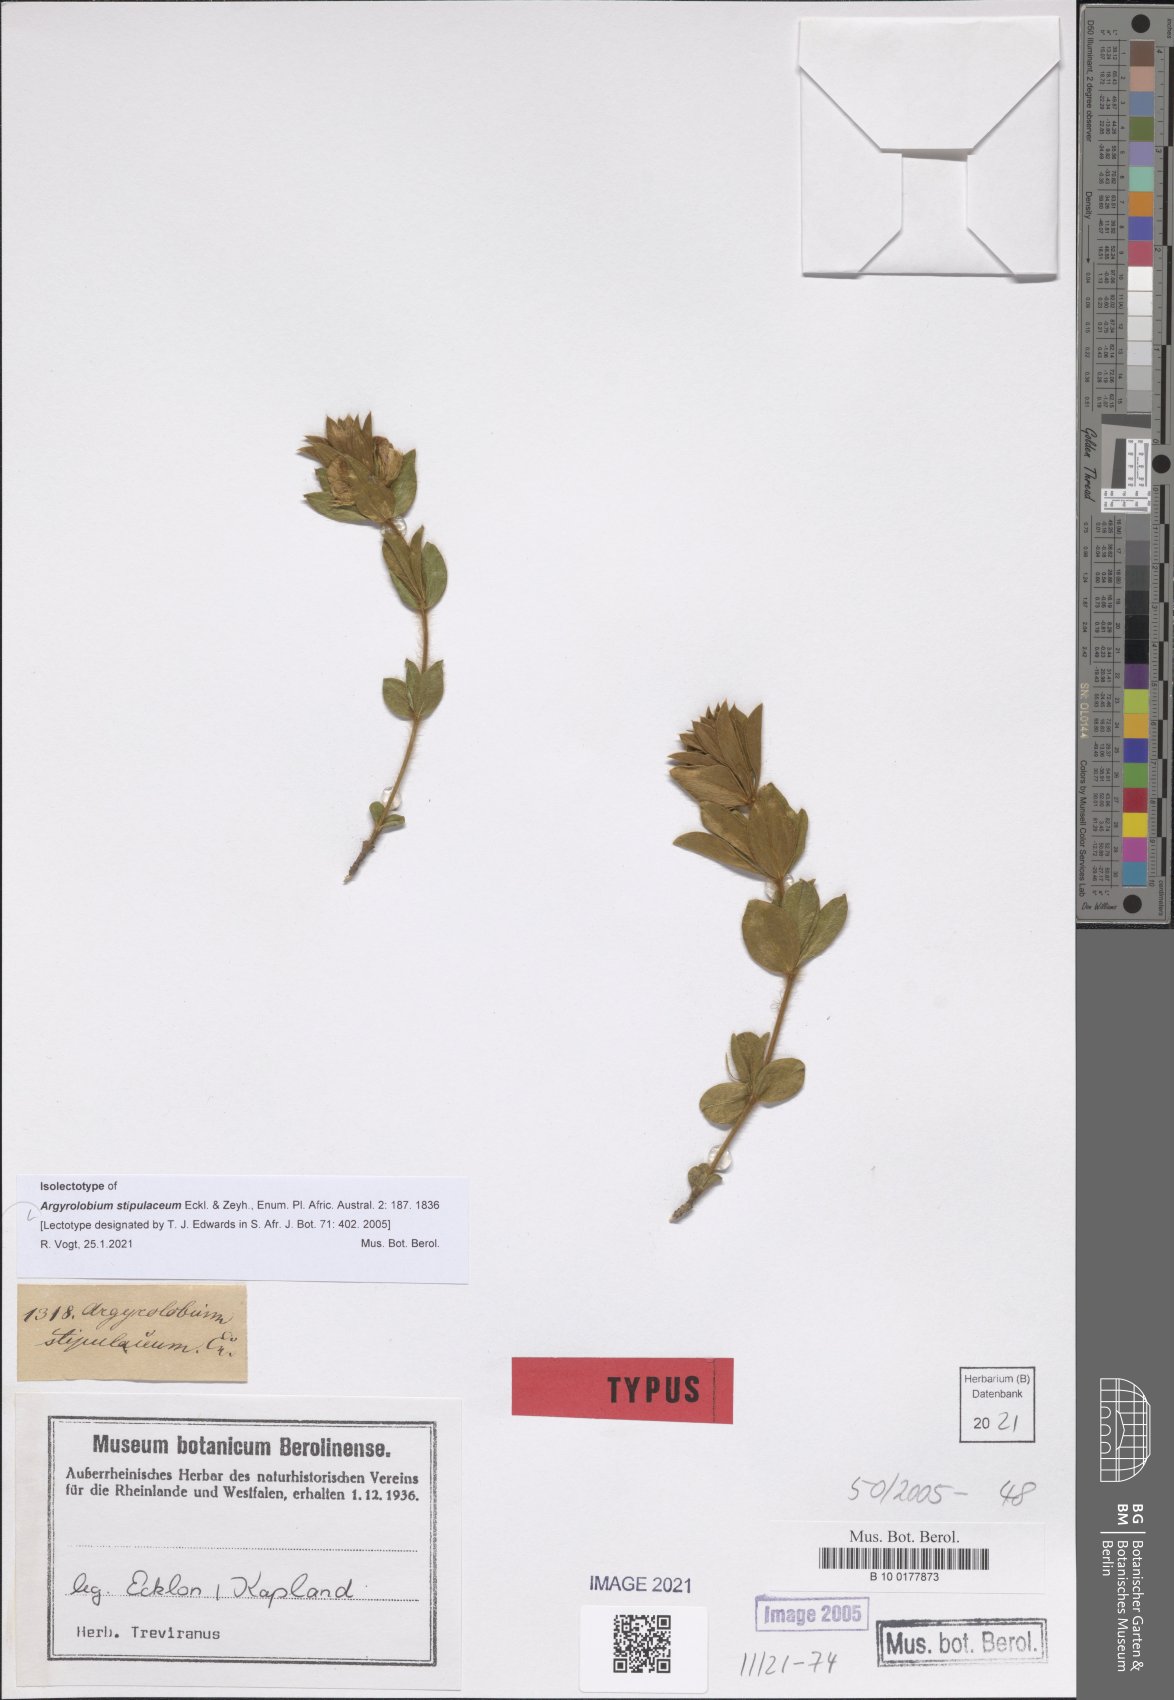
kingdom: Plantae
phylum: Tracheophyta
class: Magnoliopsida
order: Fabales
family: Fabaceae
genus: Argyrolobium
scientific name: Argyrolobium stipulaceum
